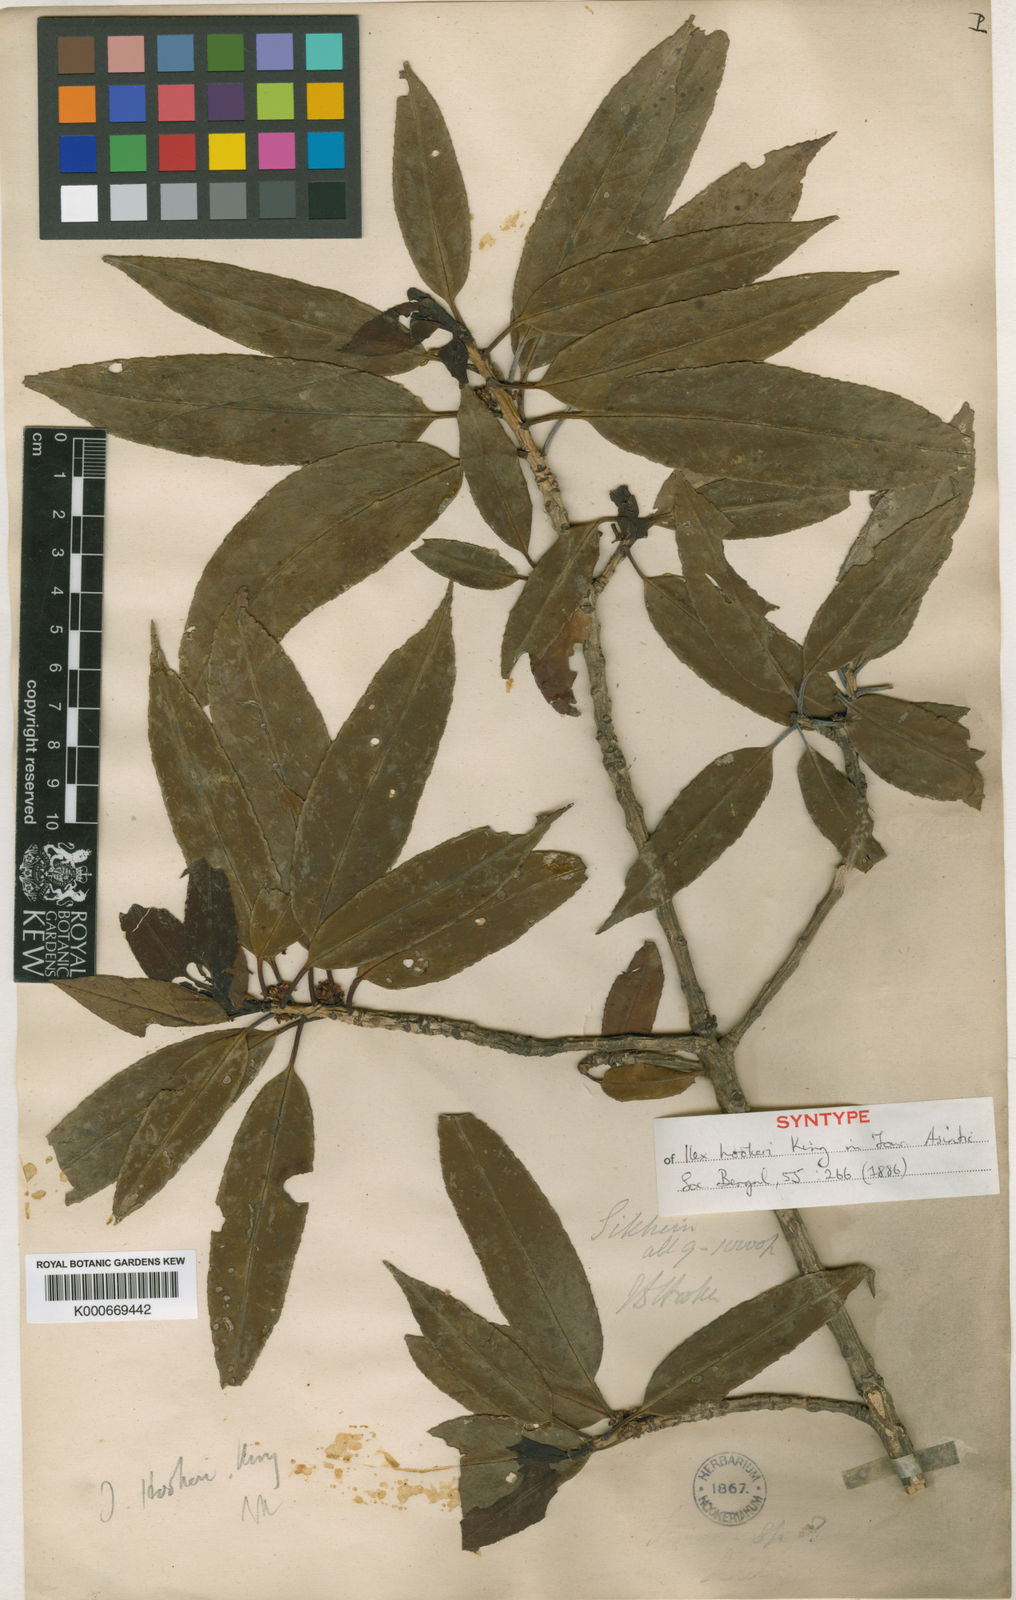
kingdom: Plantae
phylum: Tracheophyta
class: Magnoliopsida
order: Aquifoliales
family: Aquifoliaceae
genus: Ilex
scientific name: Ilex hookeri
